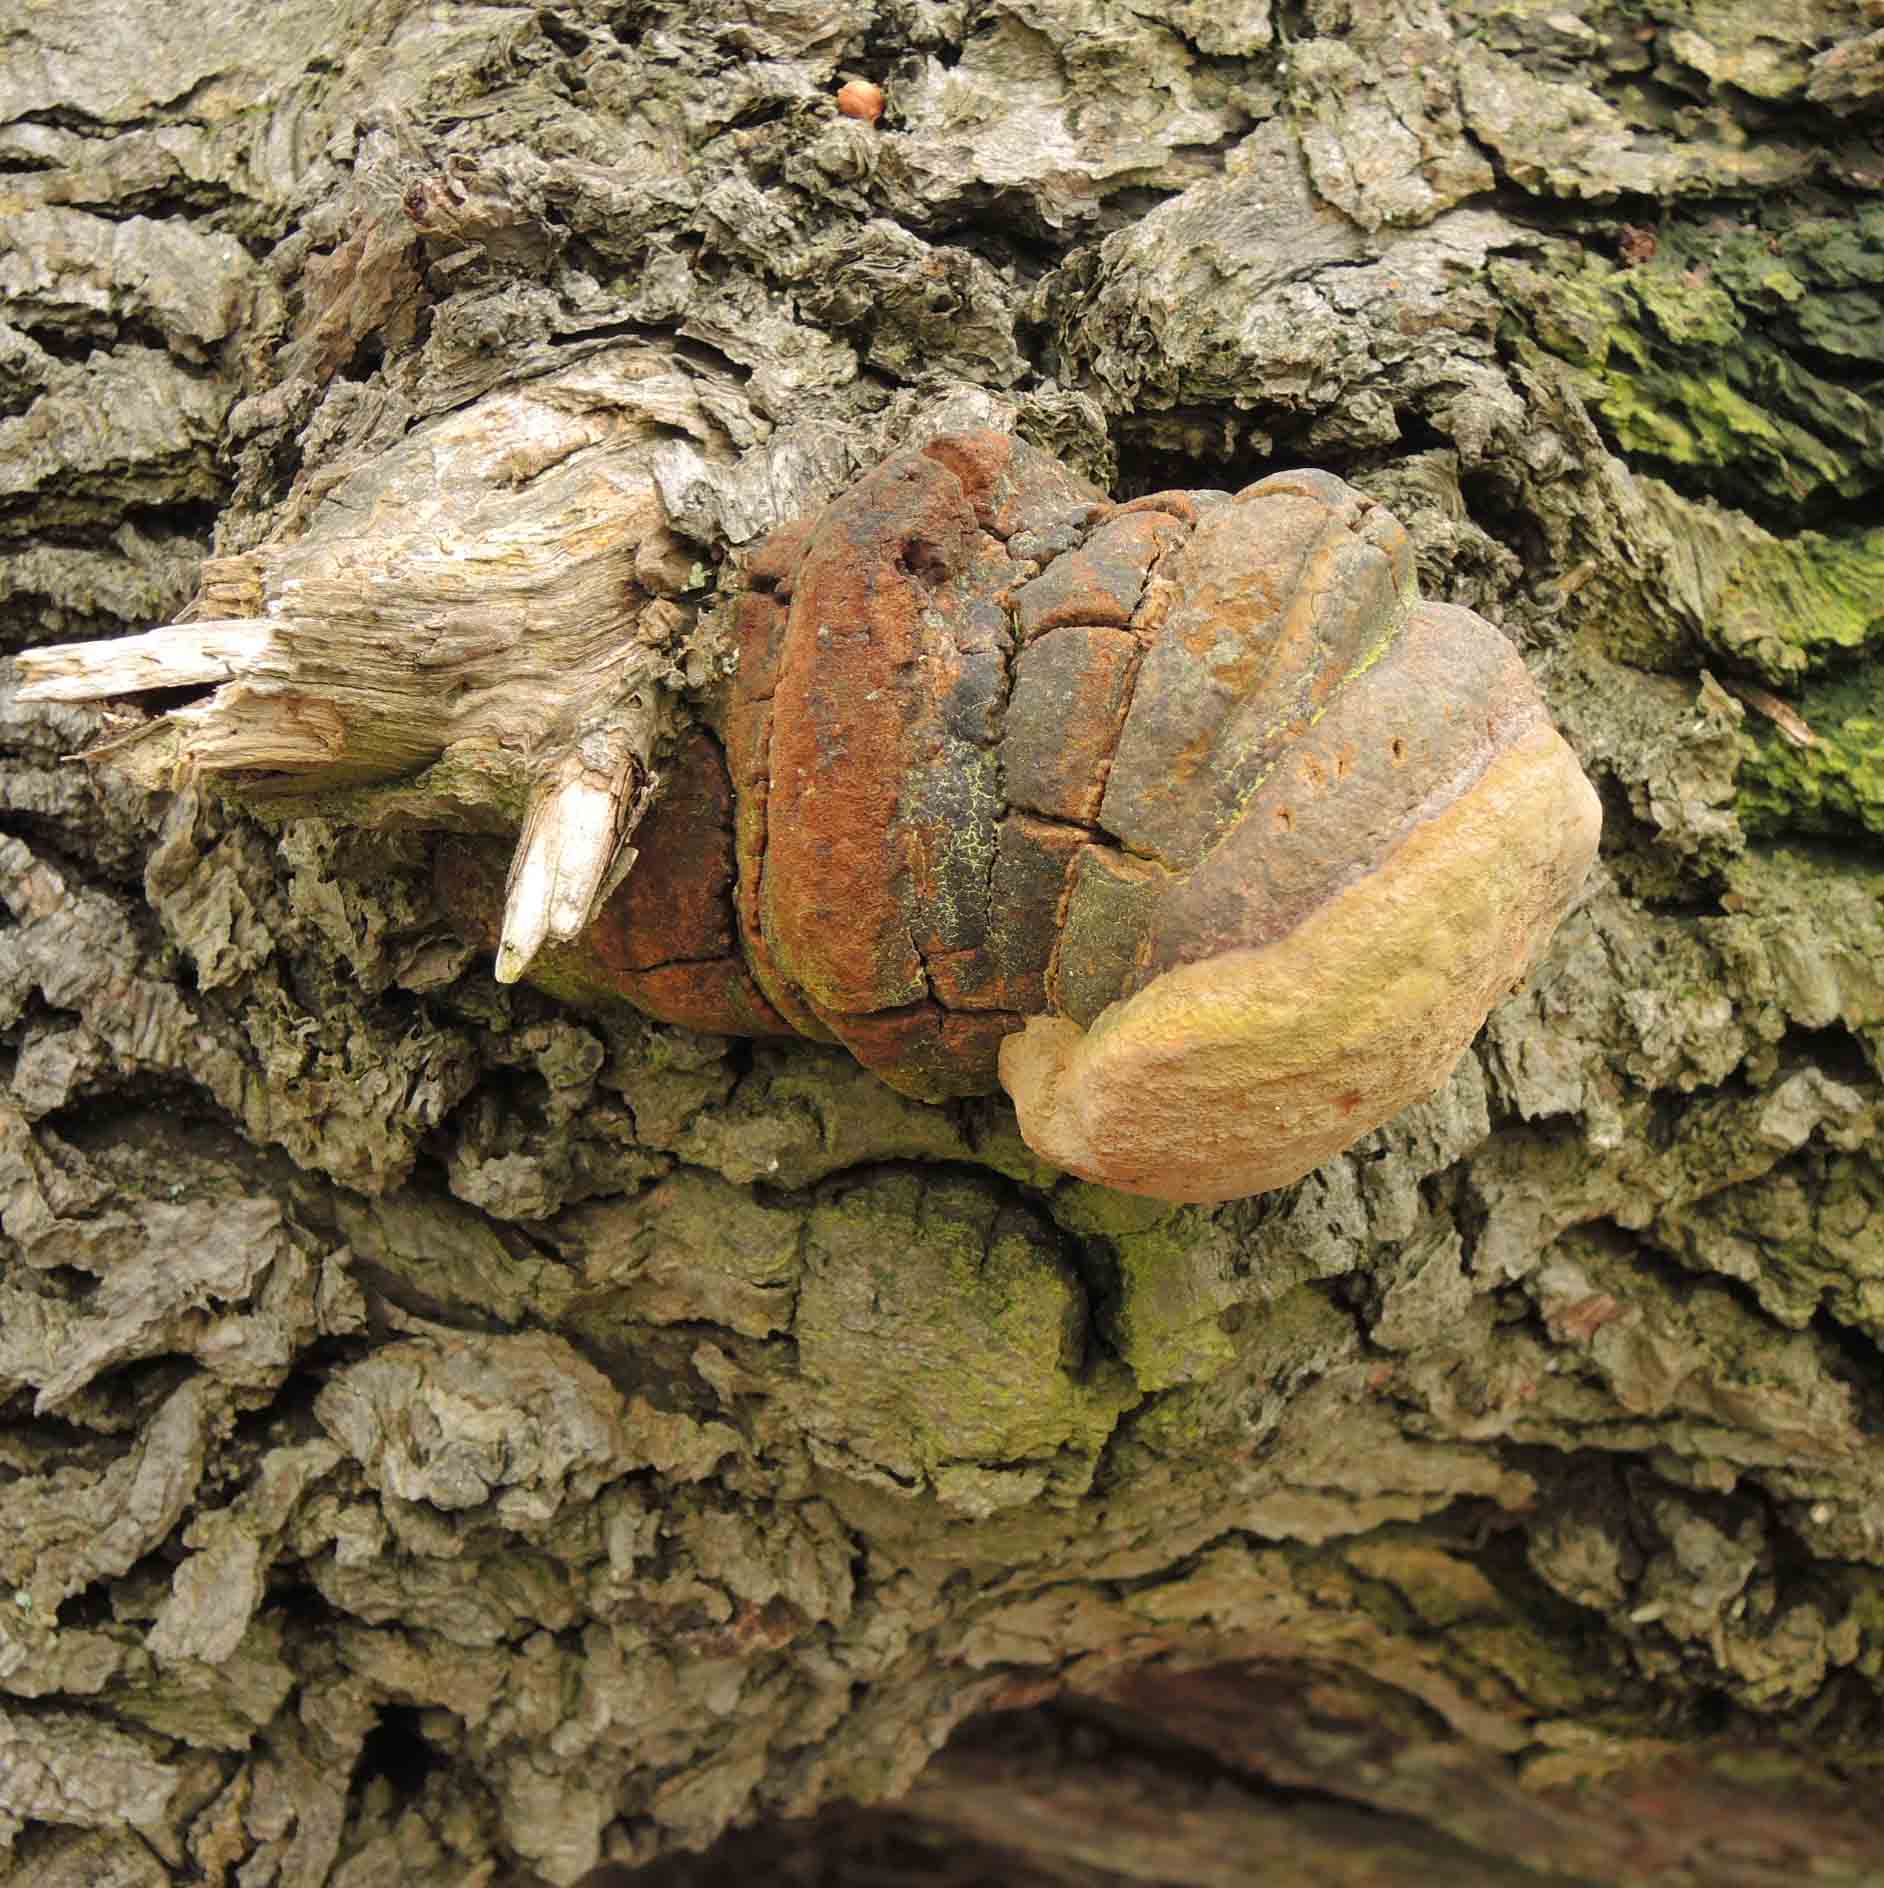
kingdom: Fungi
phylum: Basidiomycota
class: Agaricomycetes
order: Hymenochaetales
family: Hymenochaetaceae
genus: Fomitiporia
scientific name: Fomitiporia robusta
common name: ege-ildporesvamp
